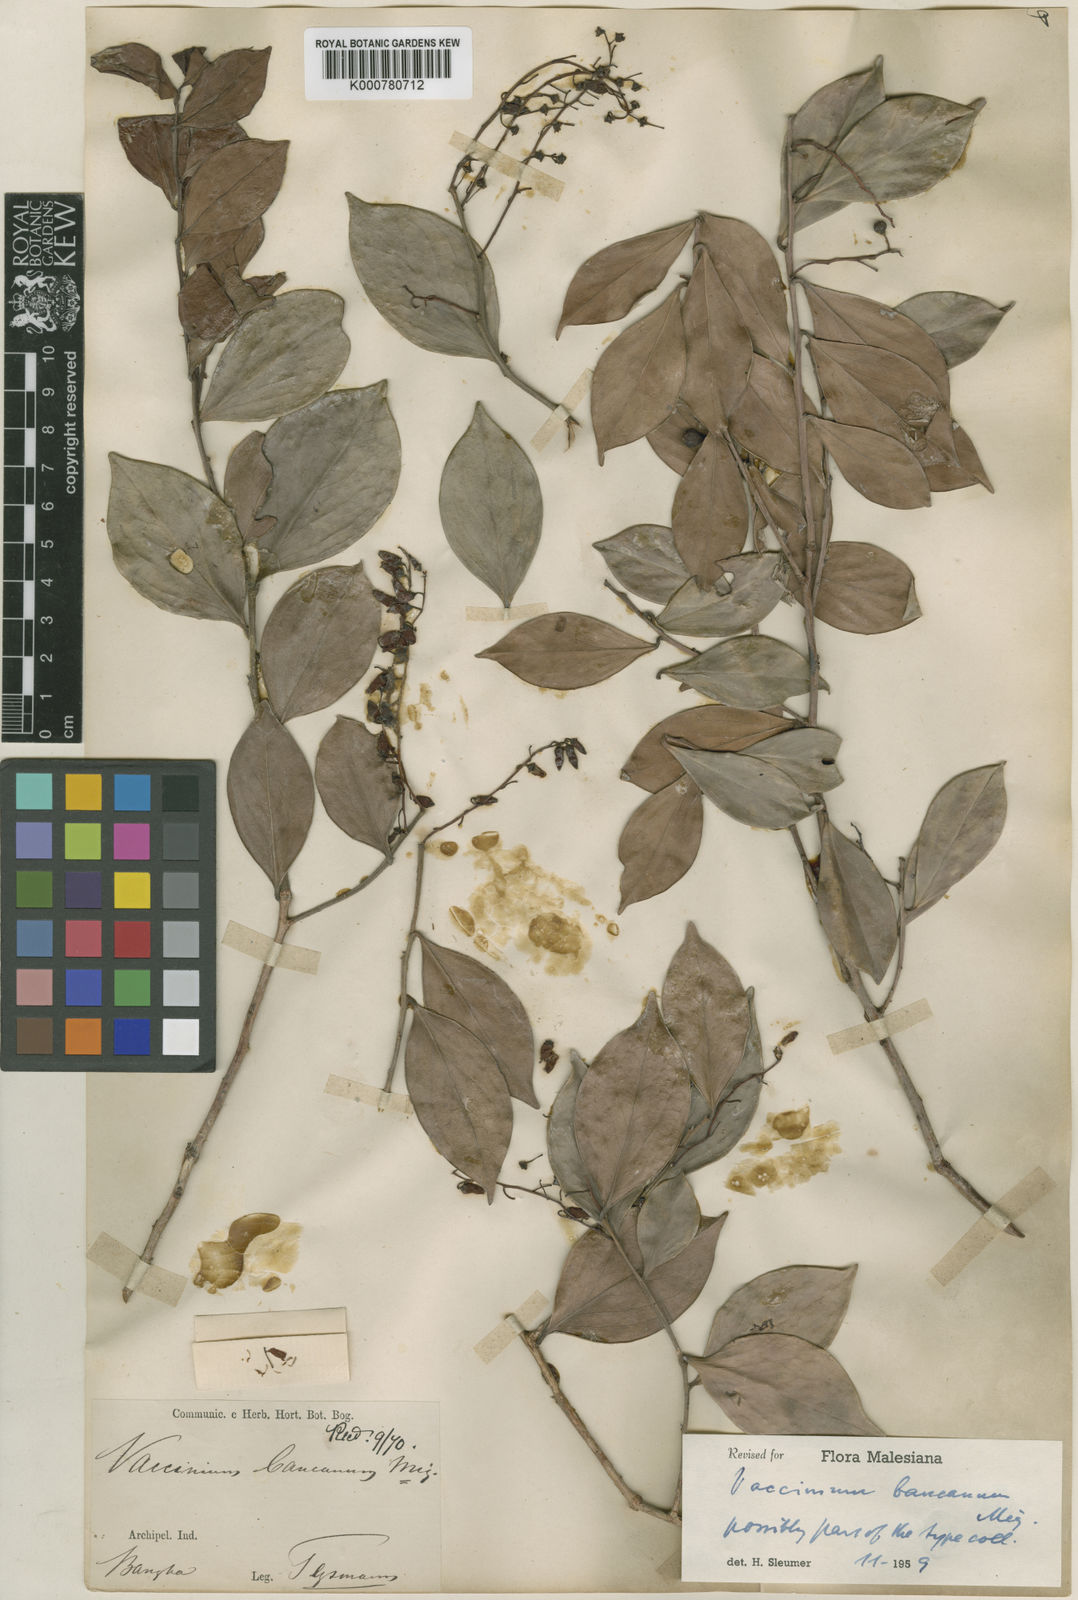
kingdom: Plantae
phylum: Tracheophyta
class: Magnoliopsida
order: Ericales
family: Ericaceae
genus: Vaccinium
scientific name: Vaccinium bancanum
